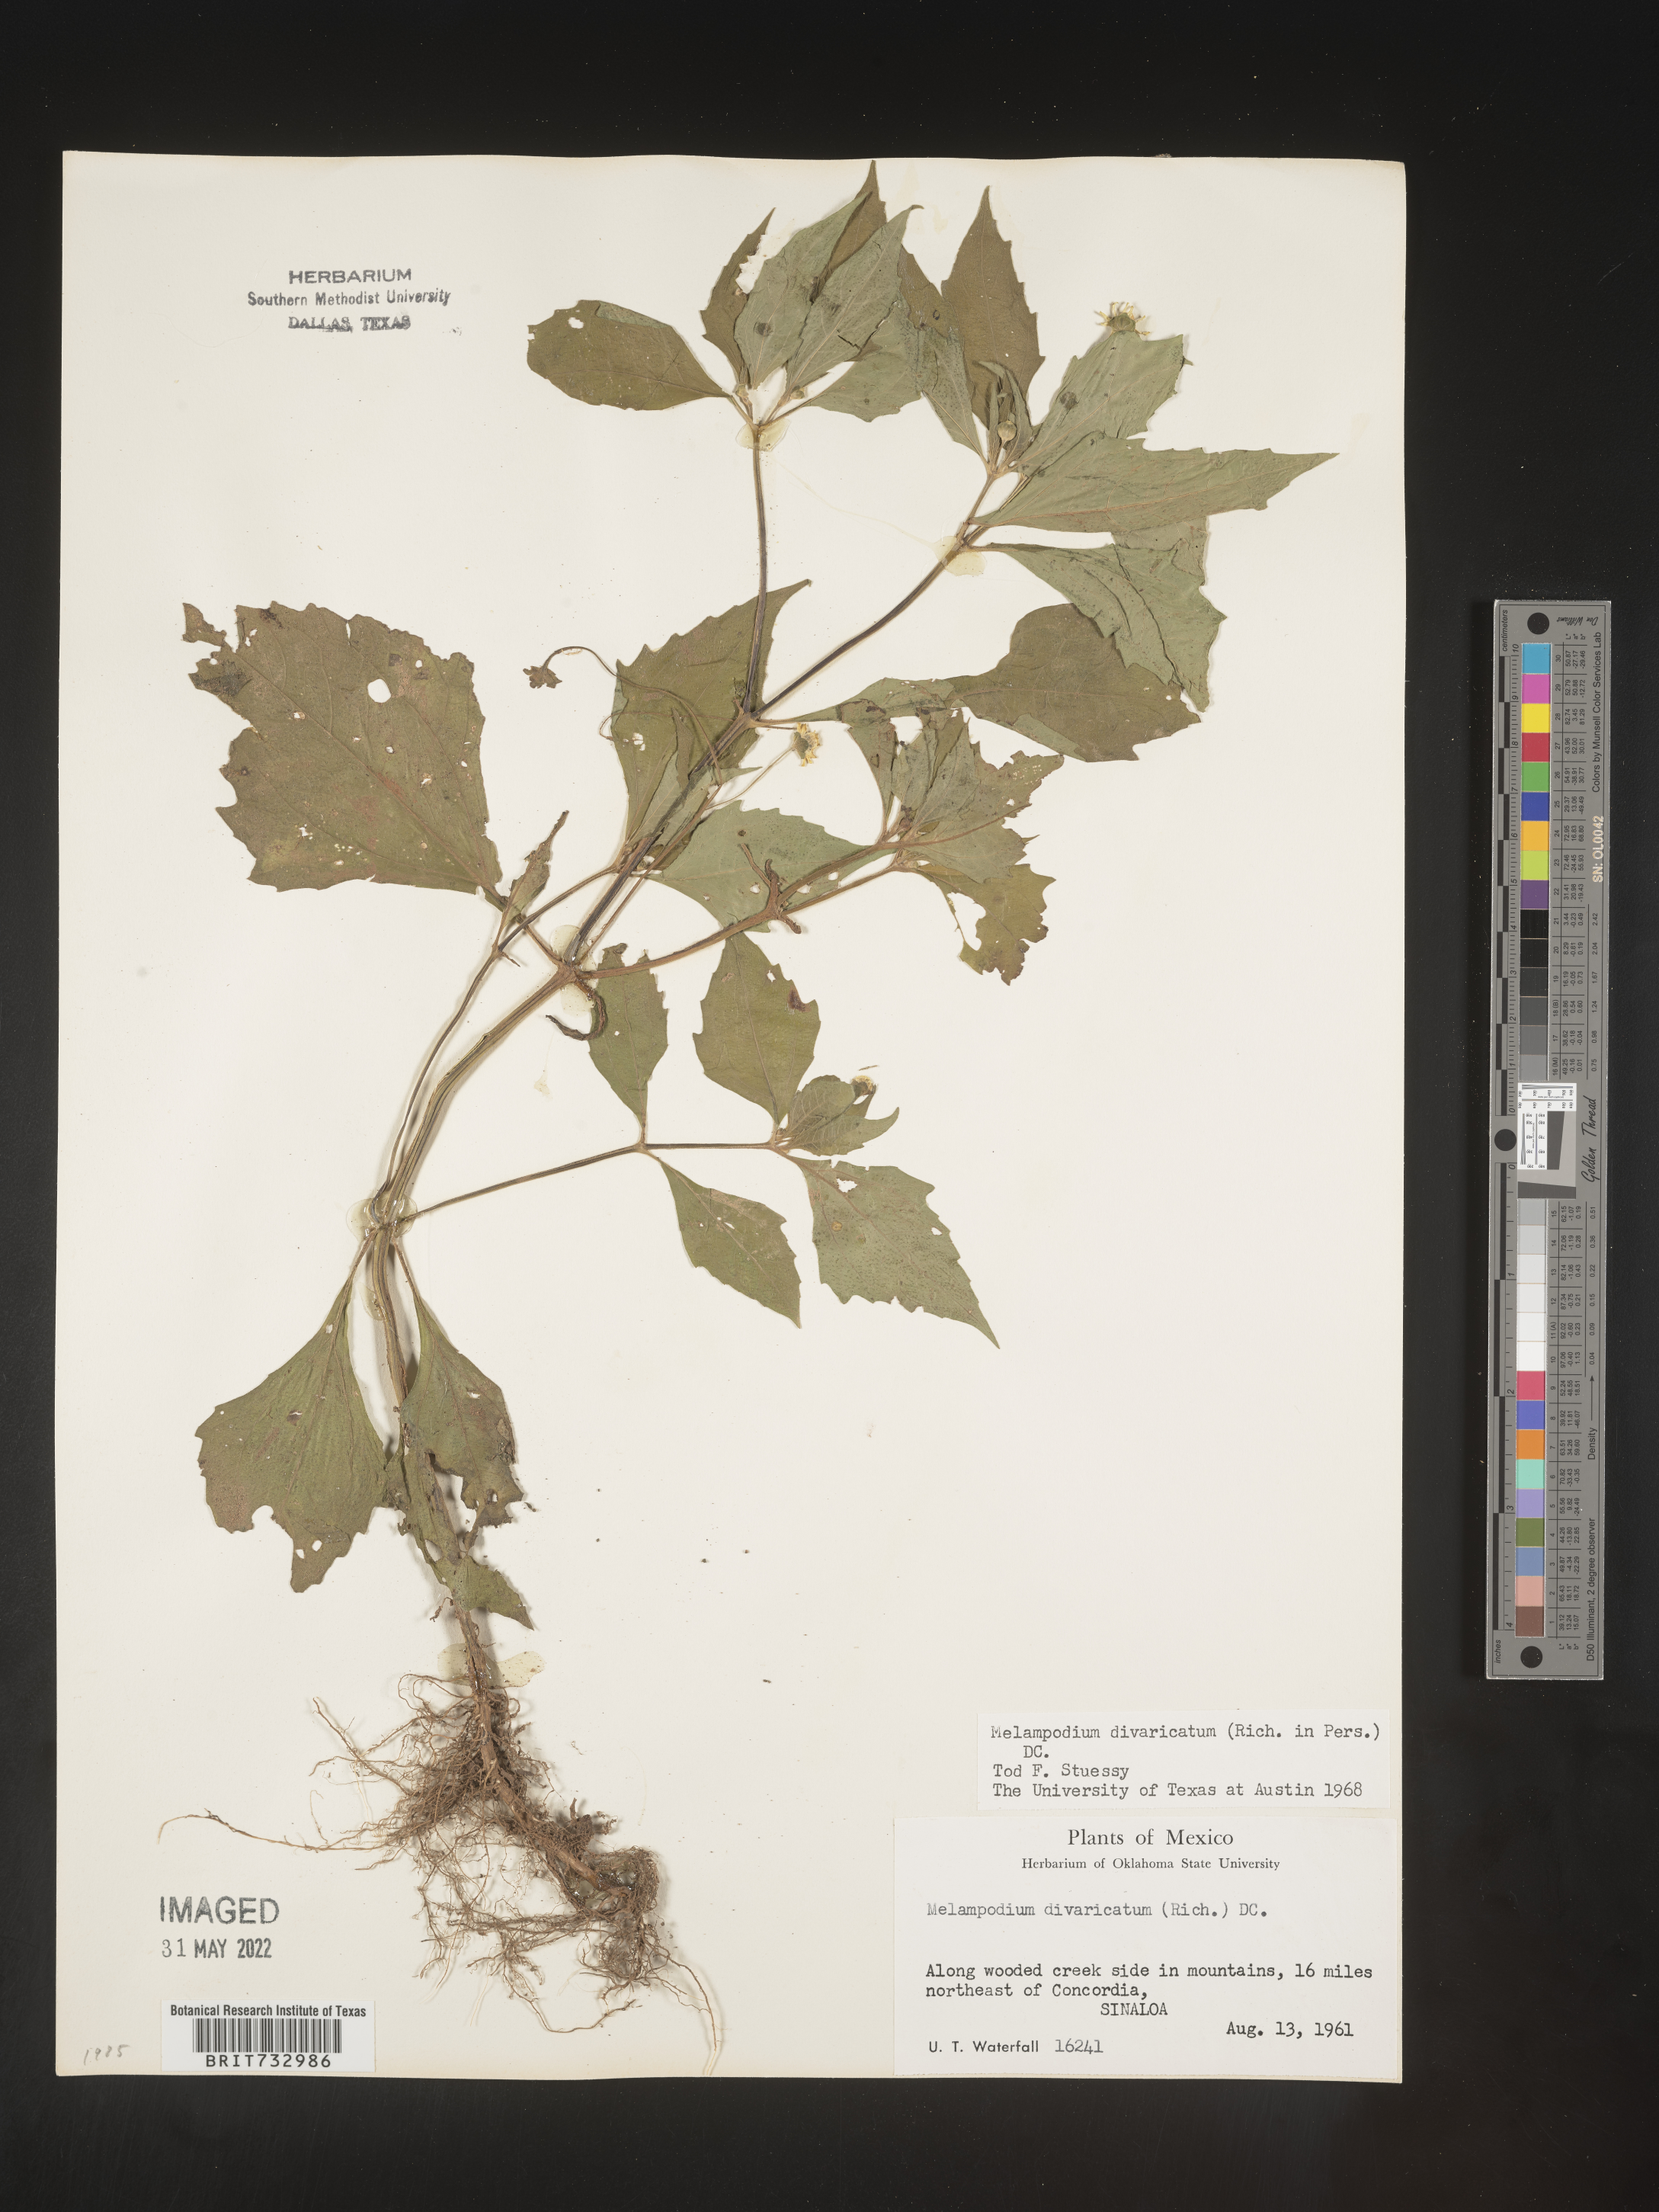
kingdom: Plantae
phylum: Tracheophyta
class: Magnoliopsida
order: Asterales
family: Asteraceae
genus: Melampodium
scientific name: Melampodium
